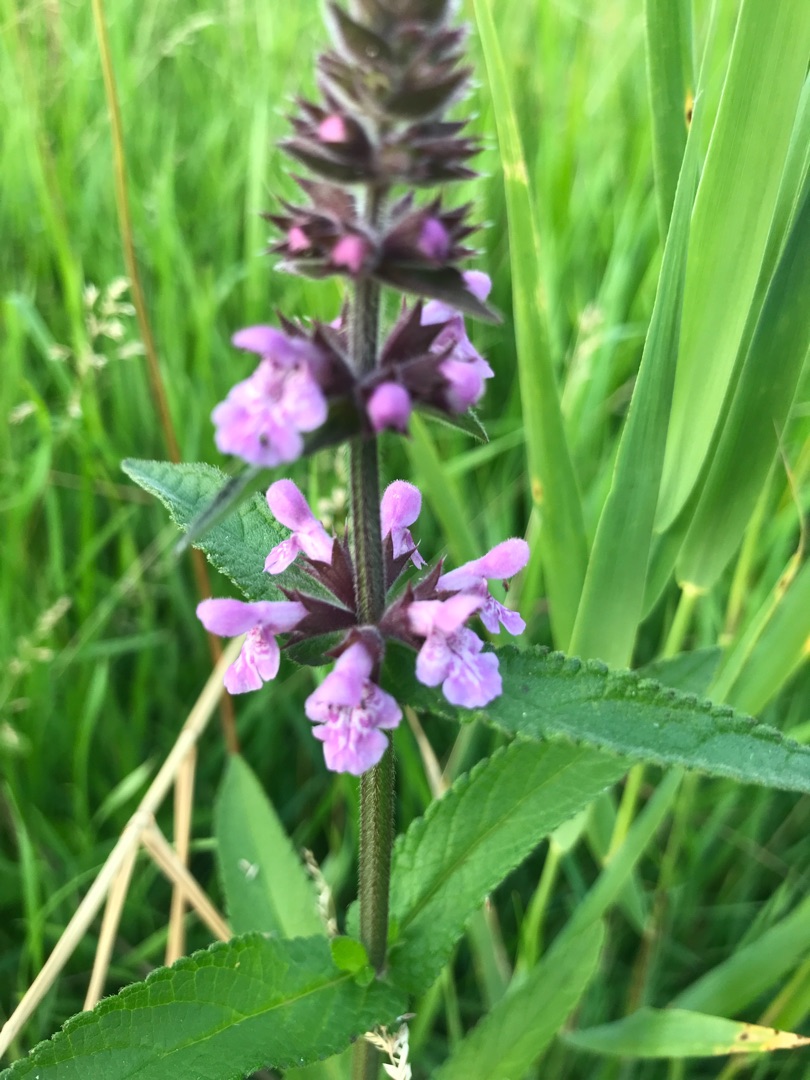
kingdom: Plantae
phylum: Tracheophyta
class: Magnoliopsida
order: Lamiales
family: Lamiaceae
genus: Stachys
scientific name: Stachys palustris
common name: Kær-galtetand
